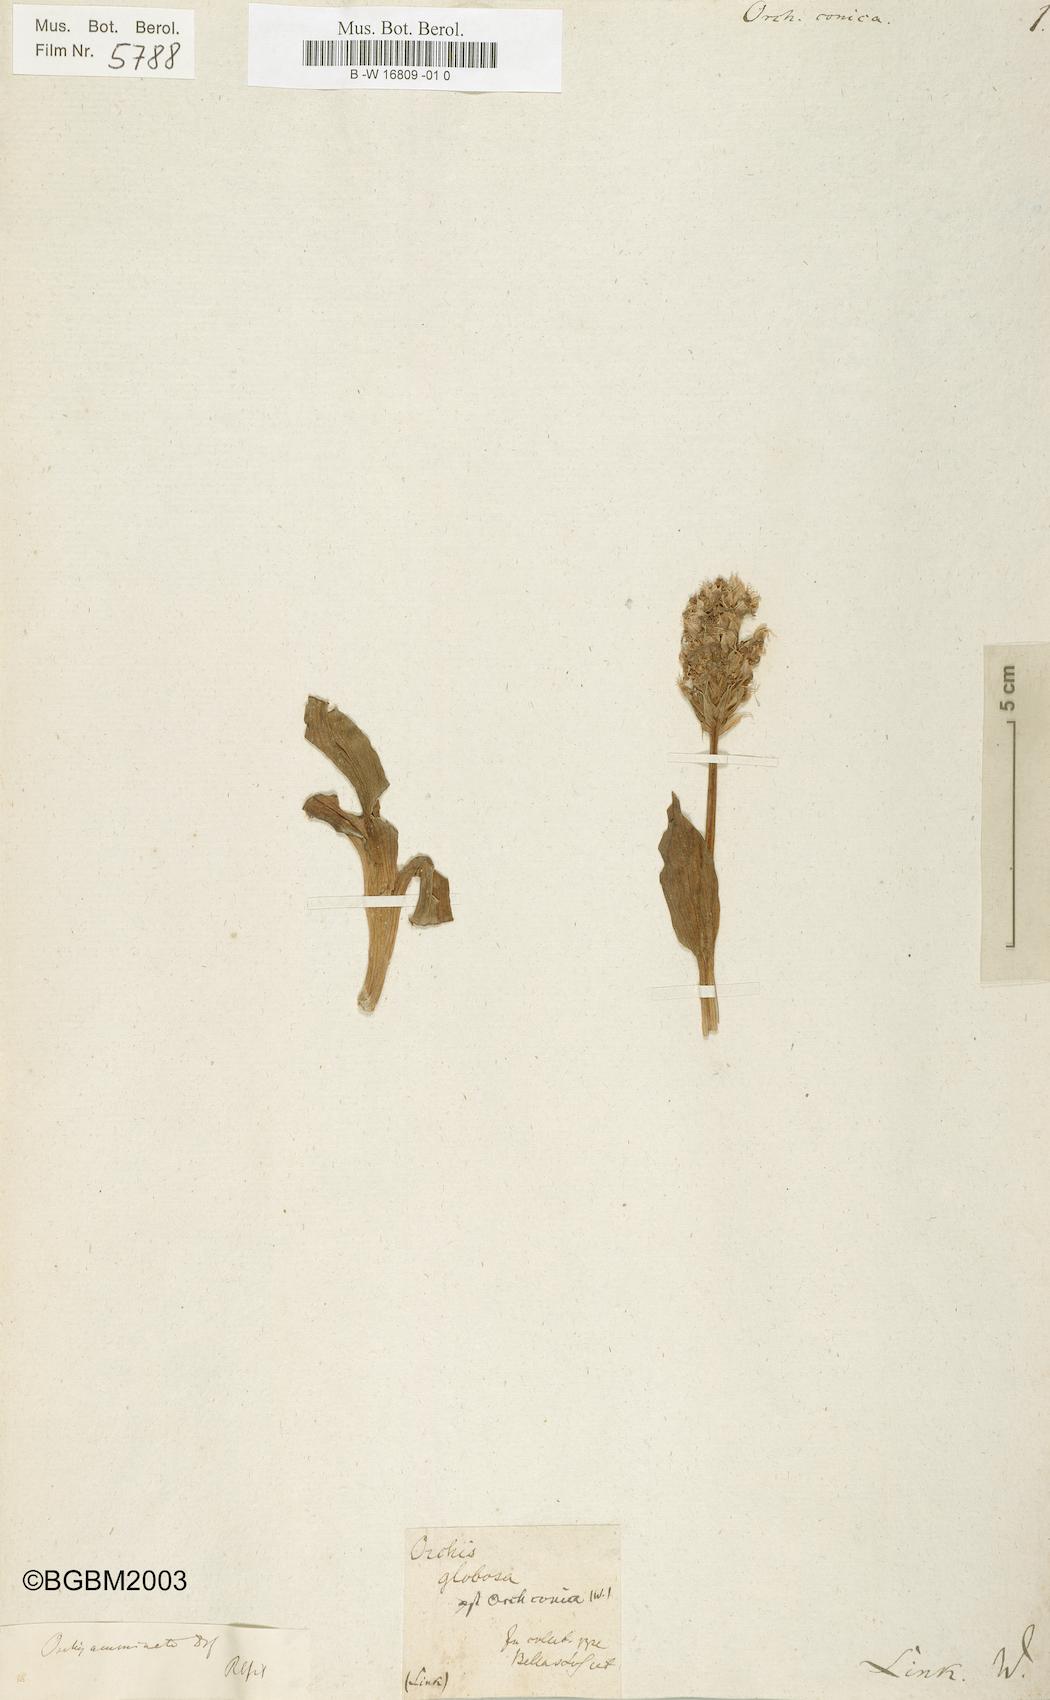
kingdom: Plantae
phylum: Tracheophyta
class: Liliopsida
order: Asparagales
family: Orchidaceae
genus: Neotinea
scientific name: Neotinea conica
